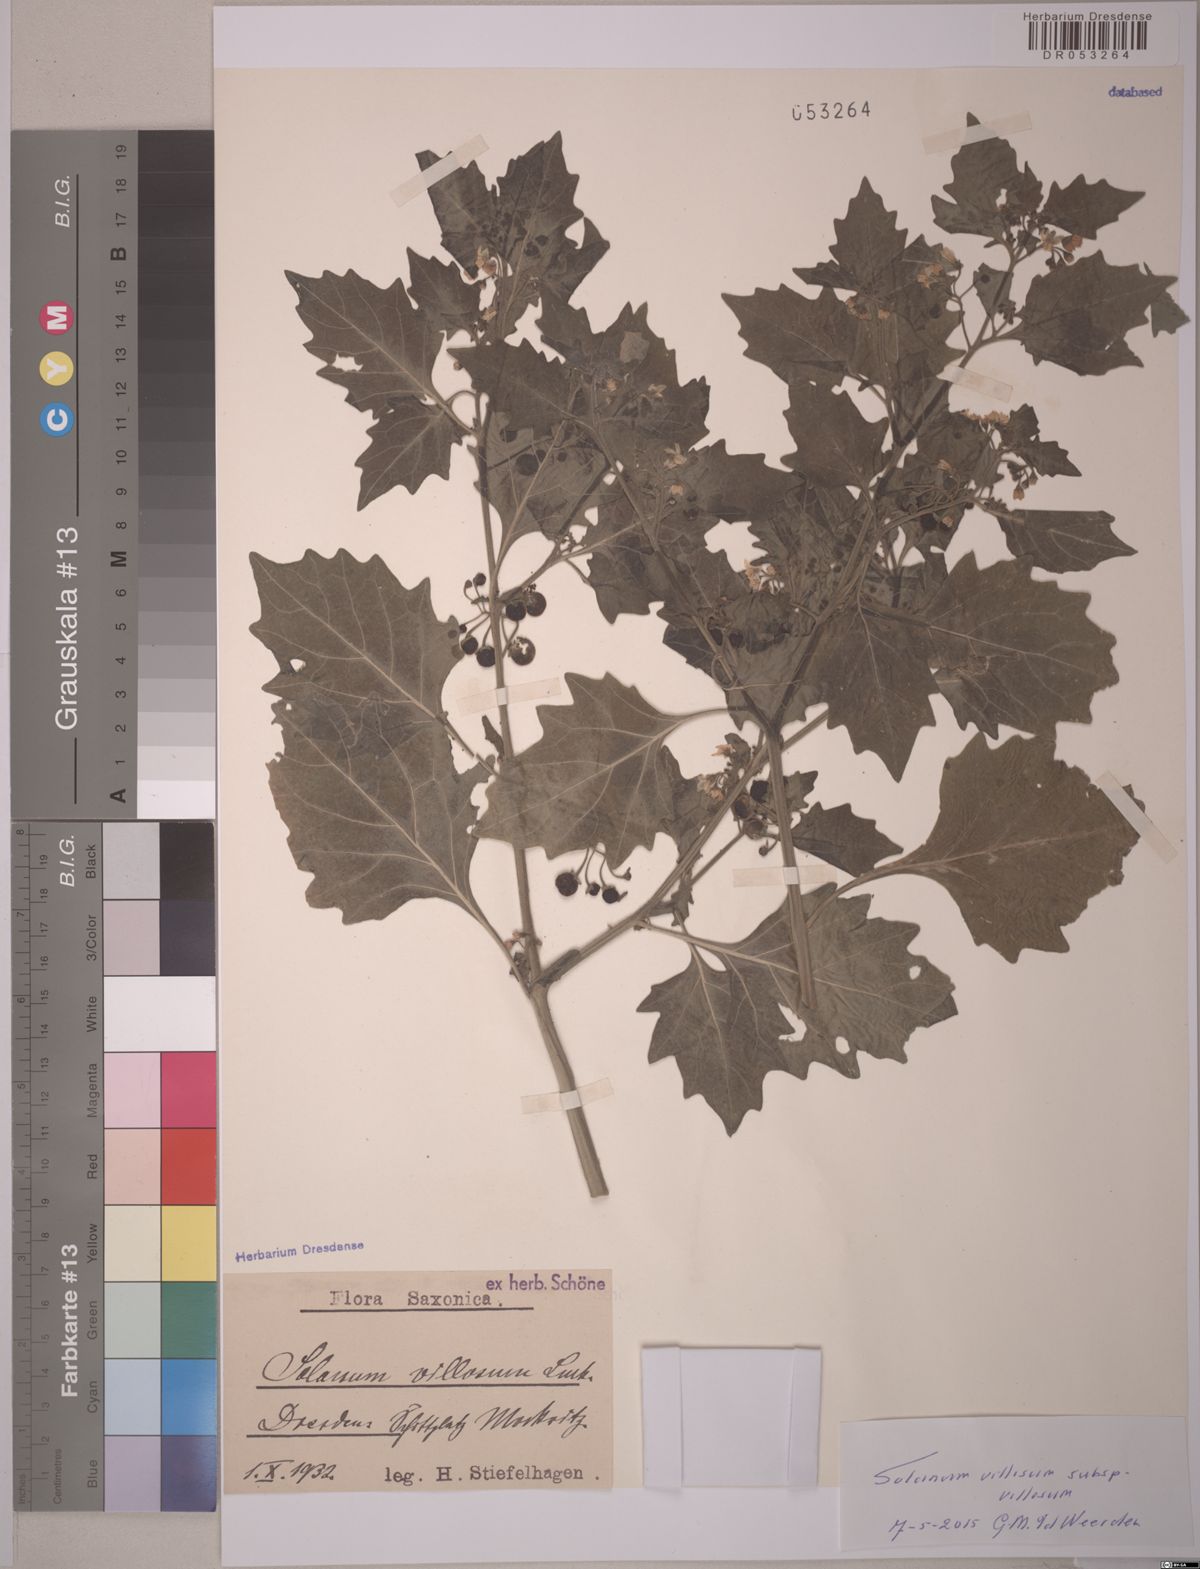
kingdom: Plantae
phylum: Tracheophyta
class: Magnoliopsida
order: Solanales
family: Solanaceae
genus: Solanum
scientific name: Solanum villosum
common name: Red nightshade
